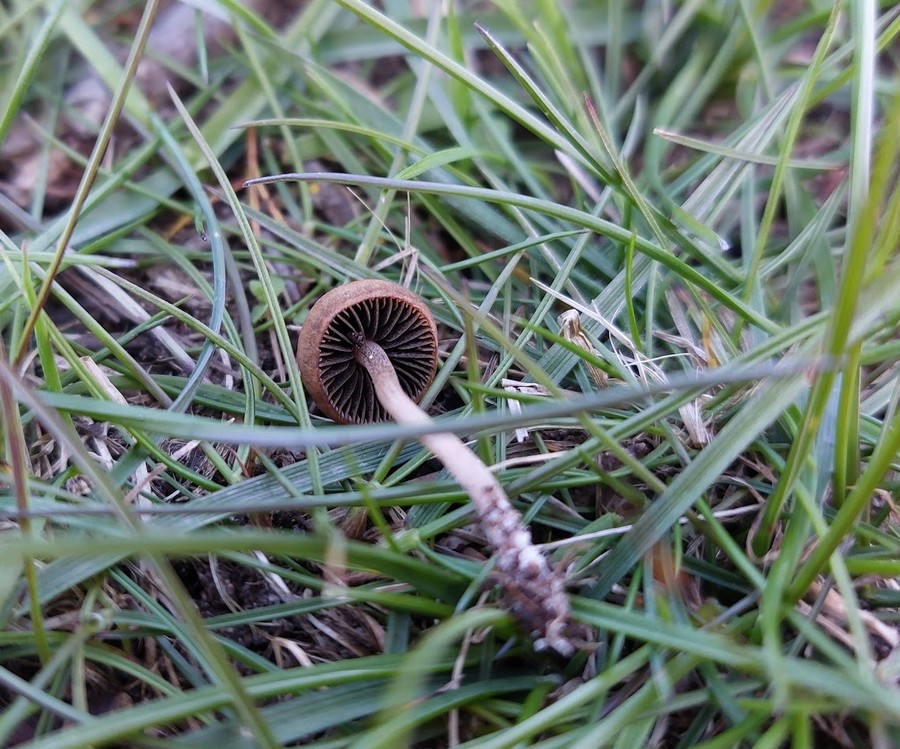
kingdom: Fungi
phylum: Basidiomycota
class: Agaricomycetes
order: Agaricales
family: Bolbitiaceae
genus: Panaeolus
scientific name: Panaeolus fimicola
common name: tidlig glanshat
